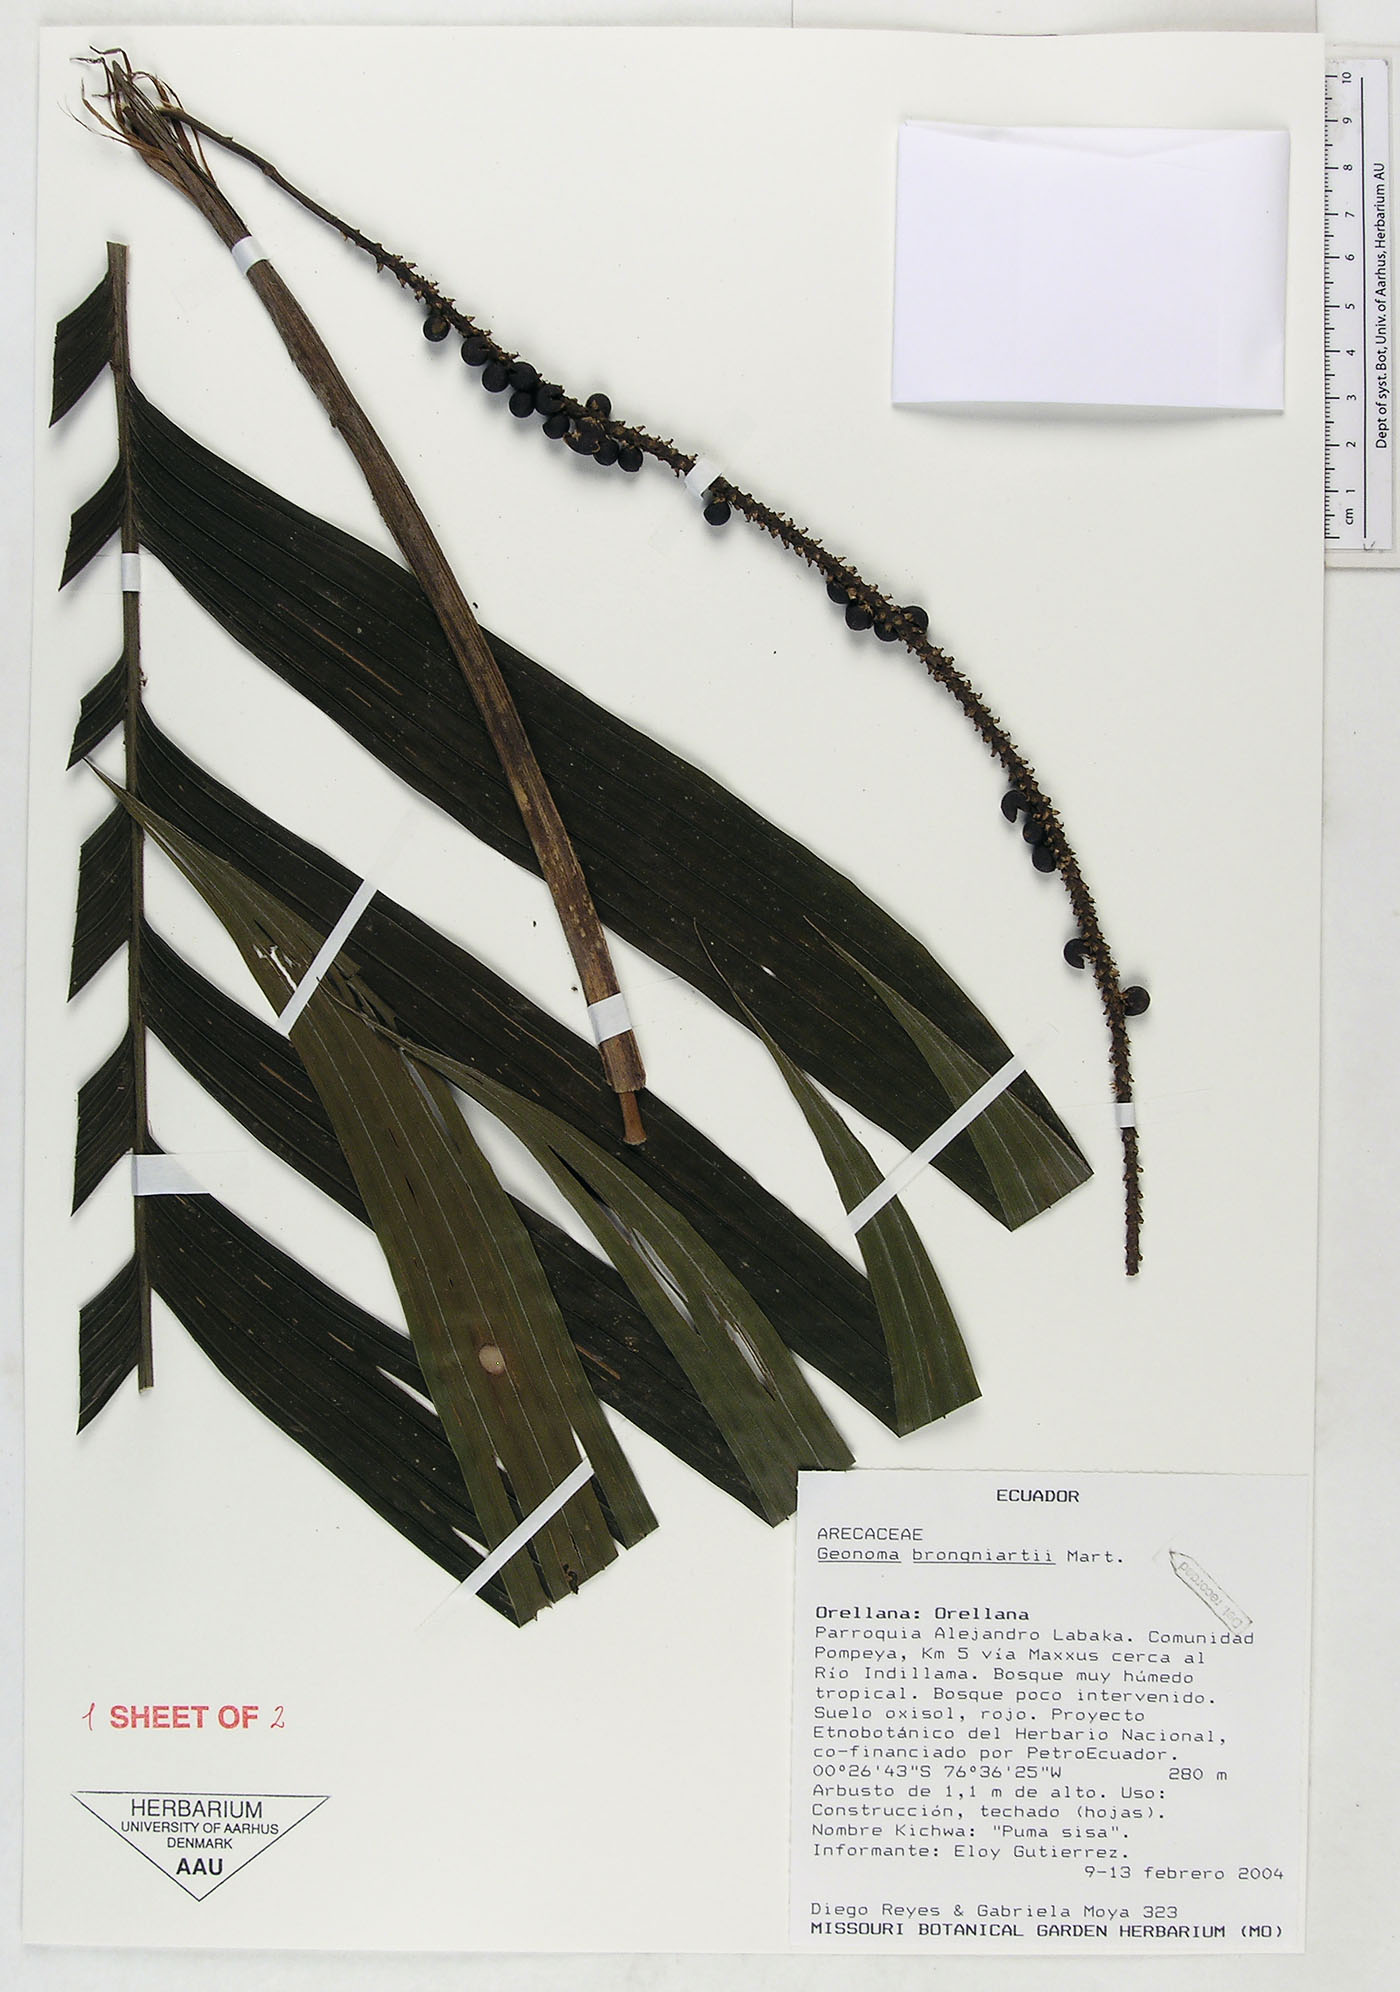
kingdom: Plantae
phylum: Tracheophyta
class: Liliopsida
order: Arecales
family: Arecaceae
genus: Geonoma
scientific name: Geonoma brongniartii
